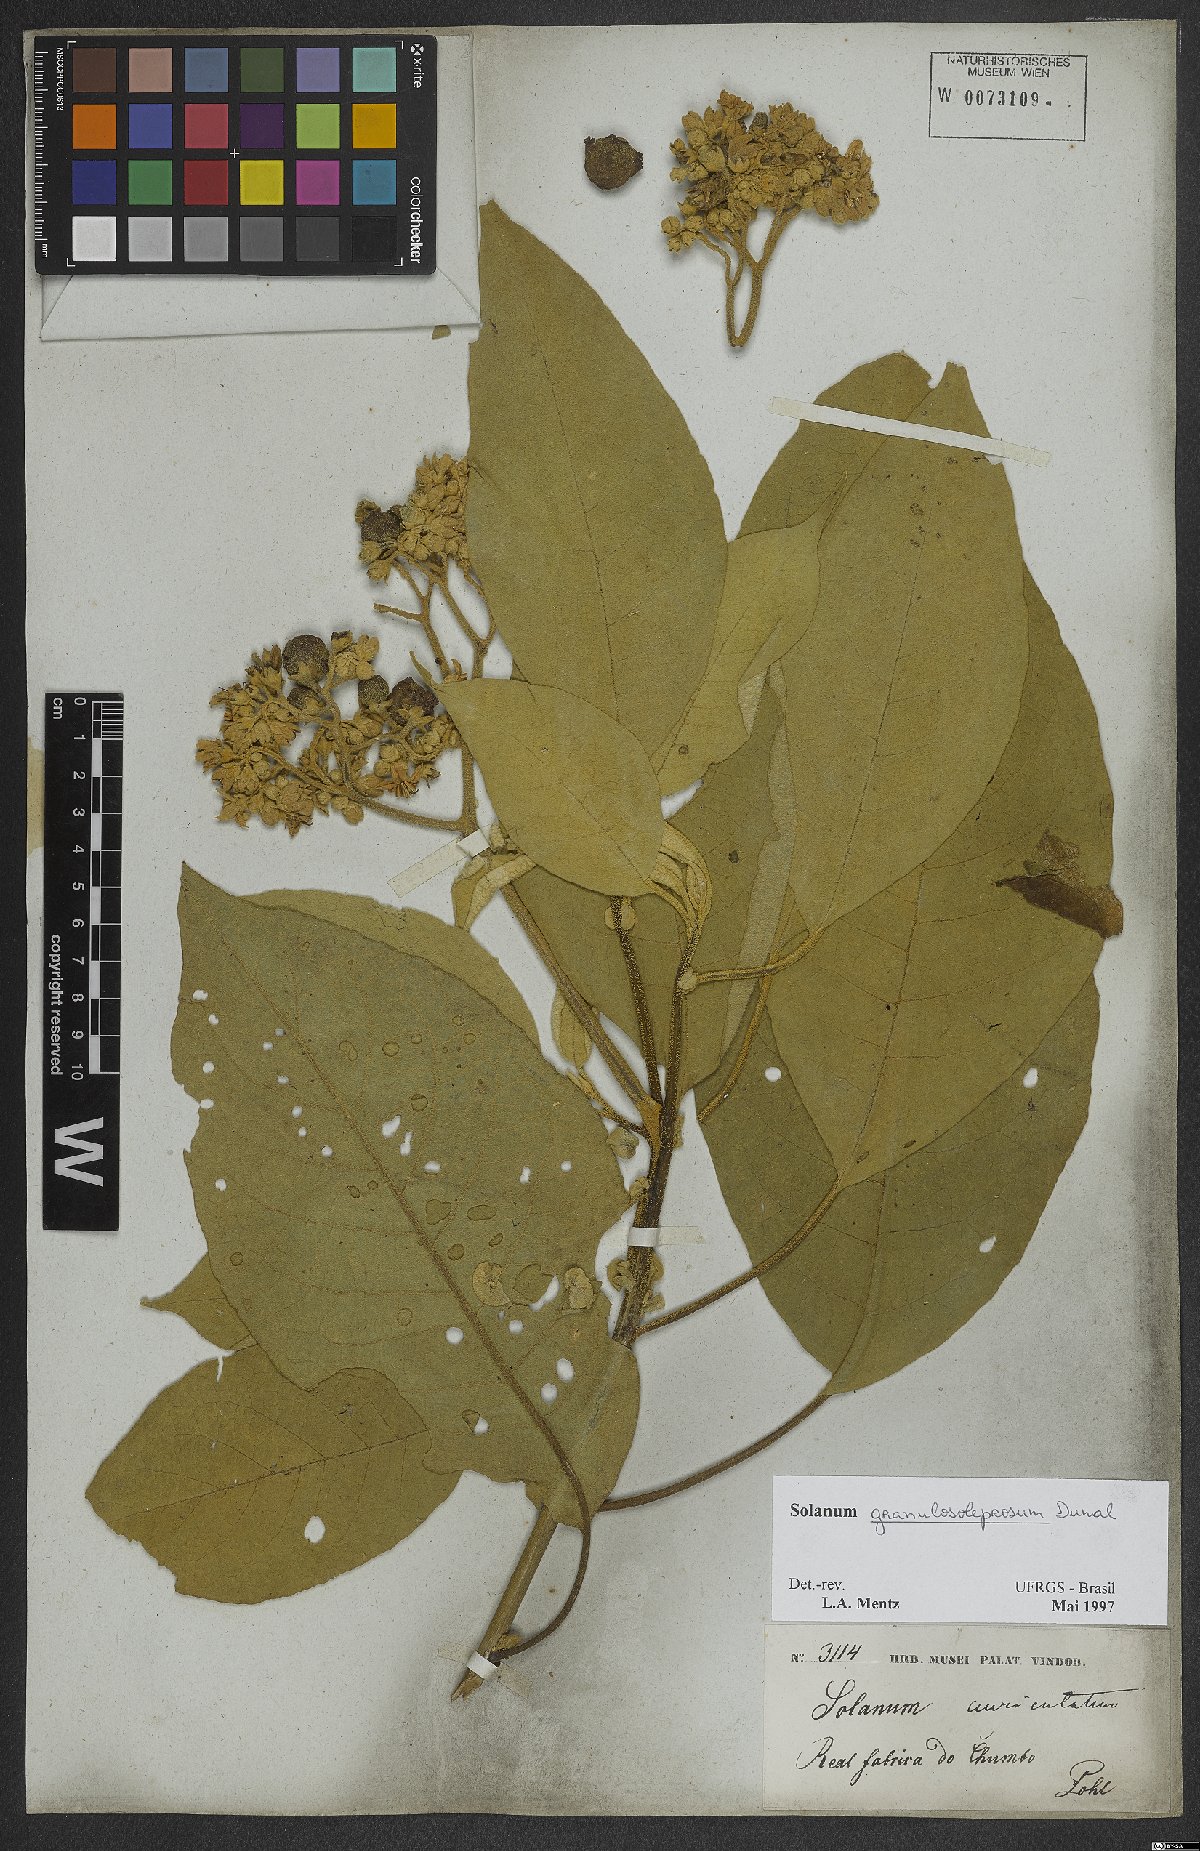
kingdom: Plantae
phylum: Tracheophyta
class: Magnoliopsida
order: Solanales
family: Solanaceae
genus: Solanum
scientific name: Solanum granulosoleprosum
